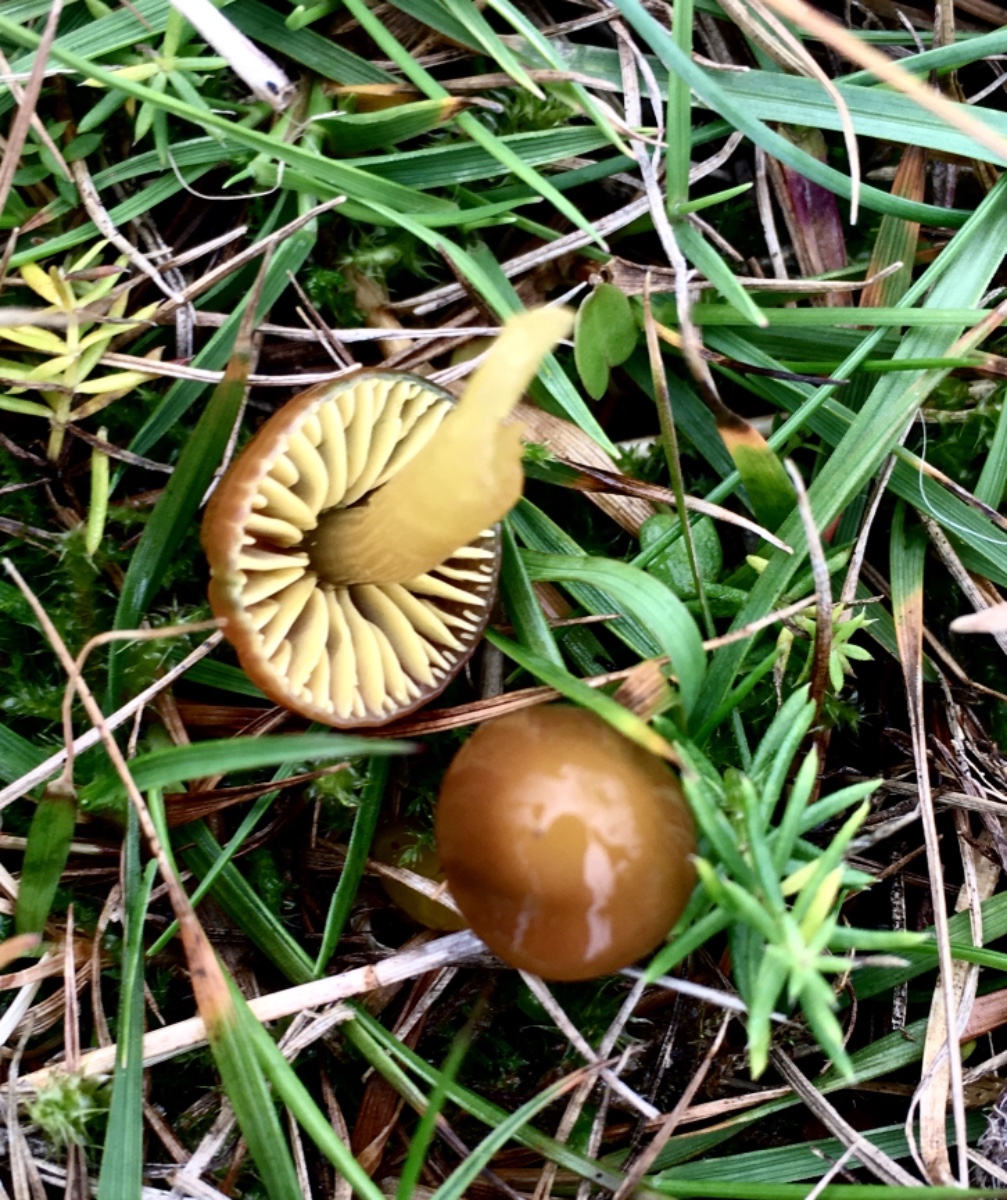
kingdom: Fungi
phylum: Basidiomycota
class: Agaricomycetes
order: Agaricales
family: Hygrophoraceae
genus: Gliophorus
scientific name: Gliophorus psittacinus
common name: papegøje-vokshat
